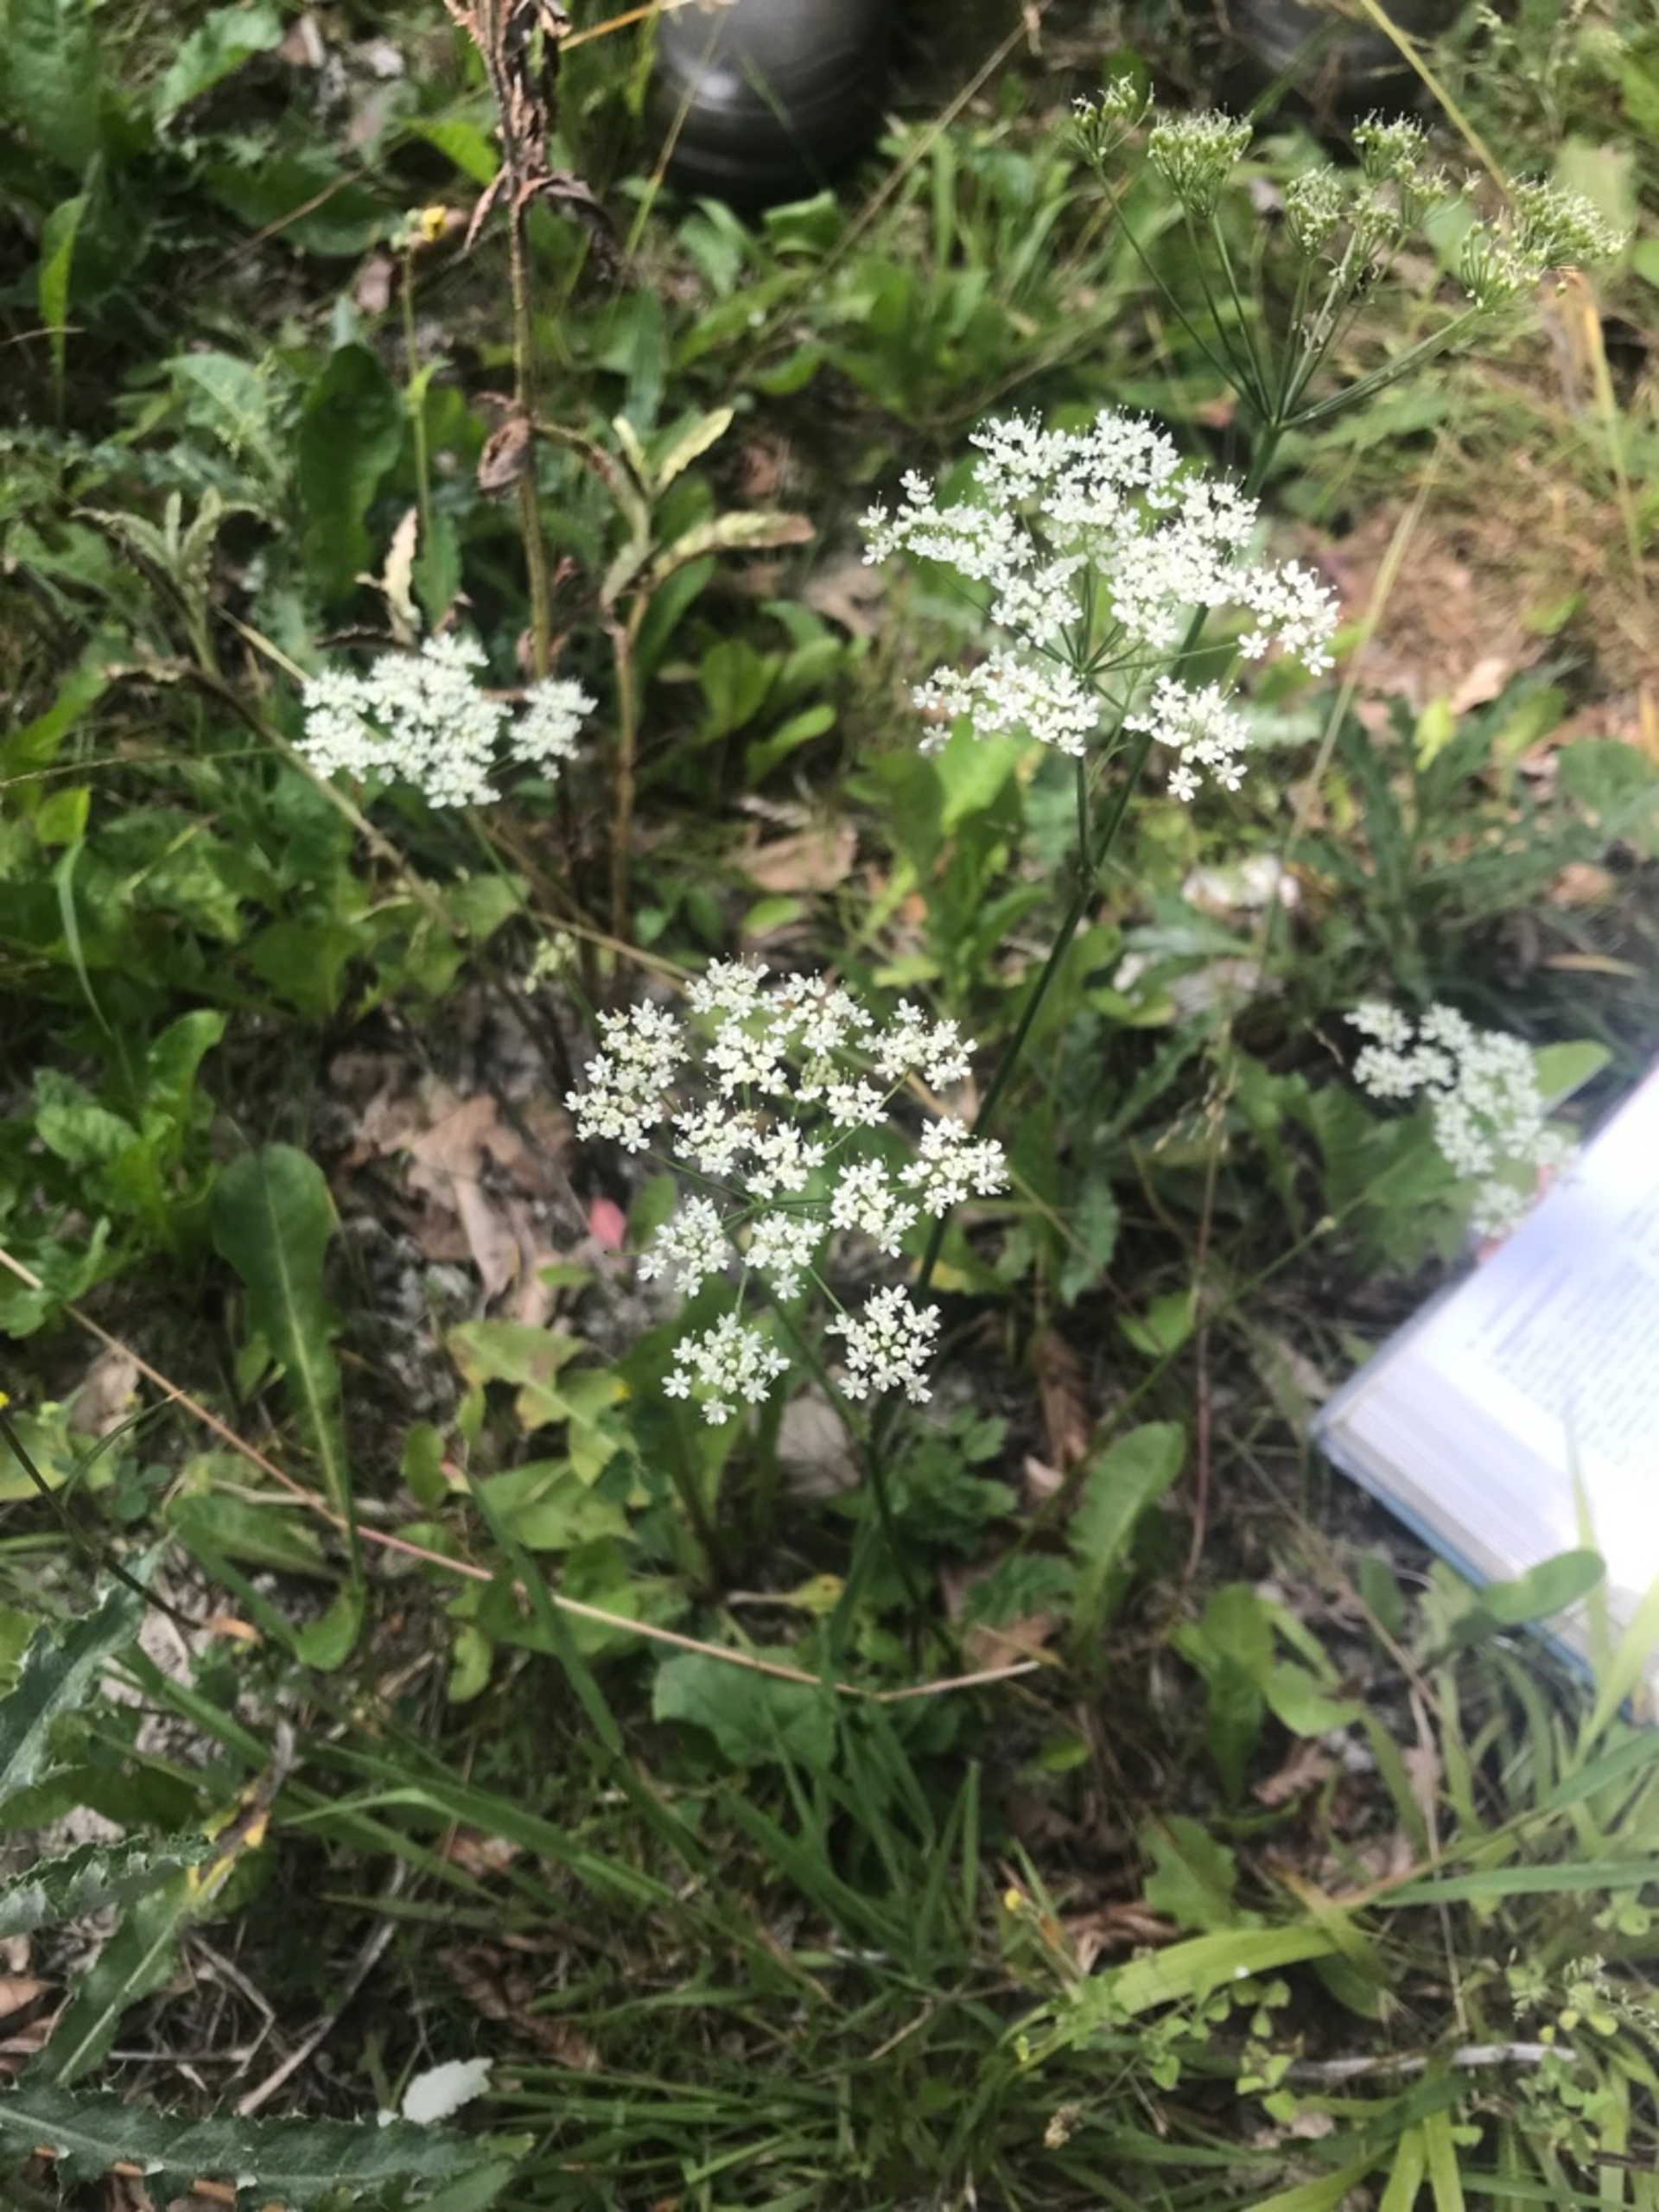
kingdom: Plantae
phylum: Tracheophyta
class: Magnoliopsida
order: Apiales
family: Apiaceae
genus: Pimpinella
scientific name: Pimpinella major
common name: Stor pimpinelle
